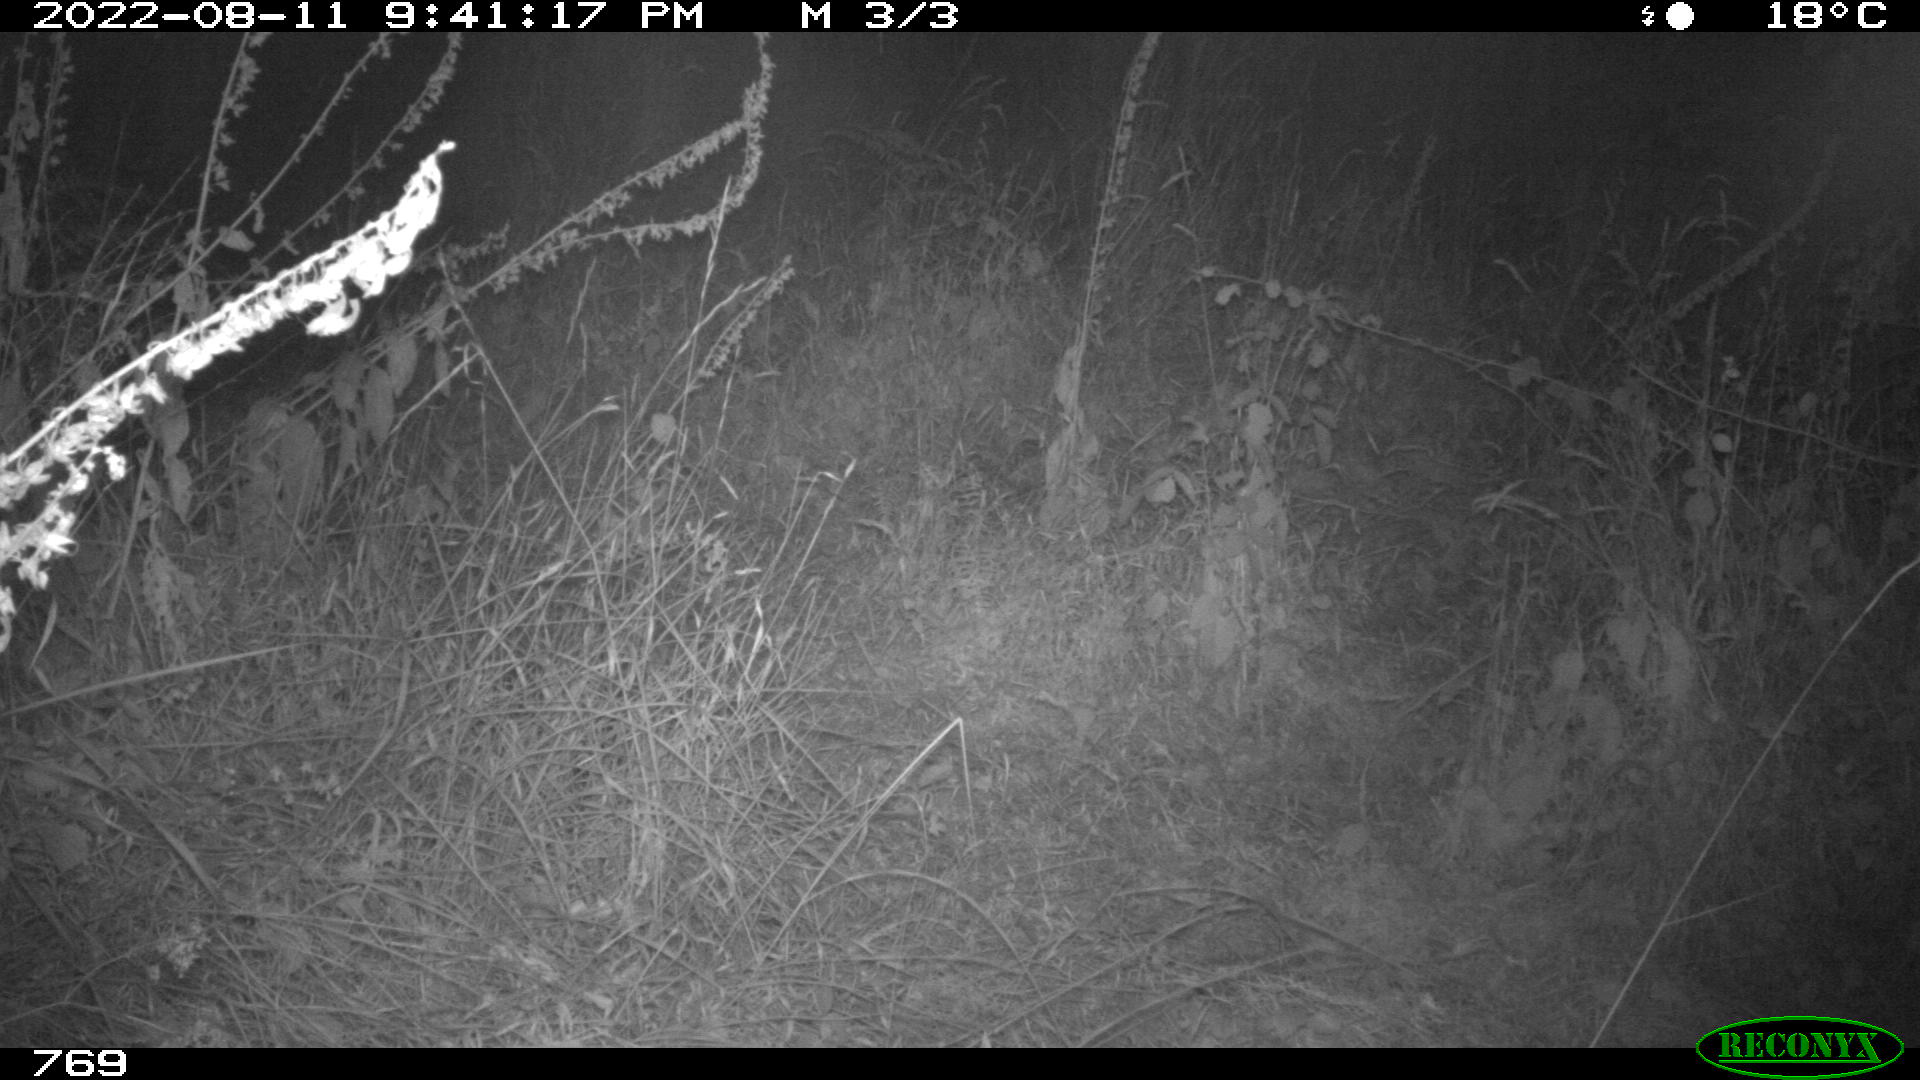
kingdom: Animalia
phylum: Chordata
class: Mammalia
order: Artiodactyla
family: Cervidae
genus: Capreolus
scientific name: Capreolus capreolus
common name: Western roe deer
